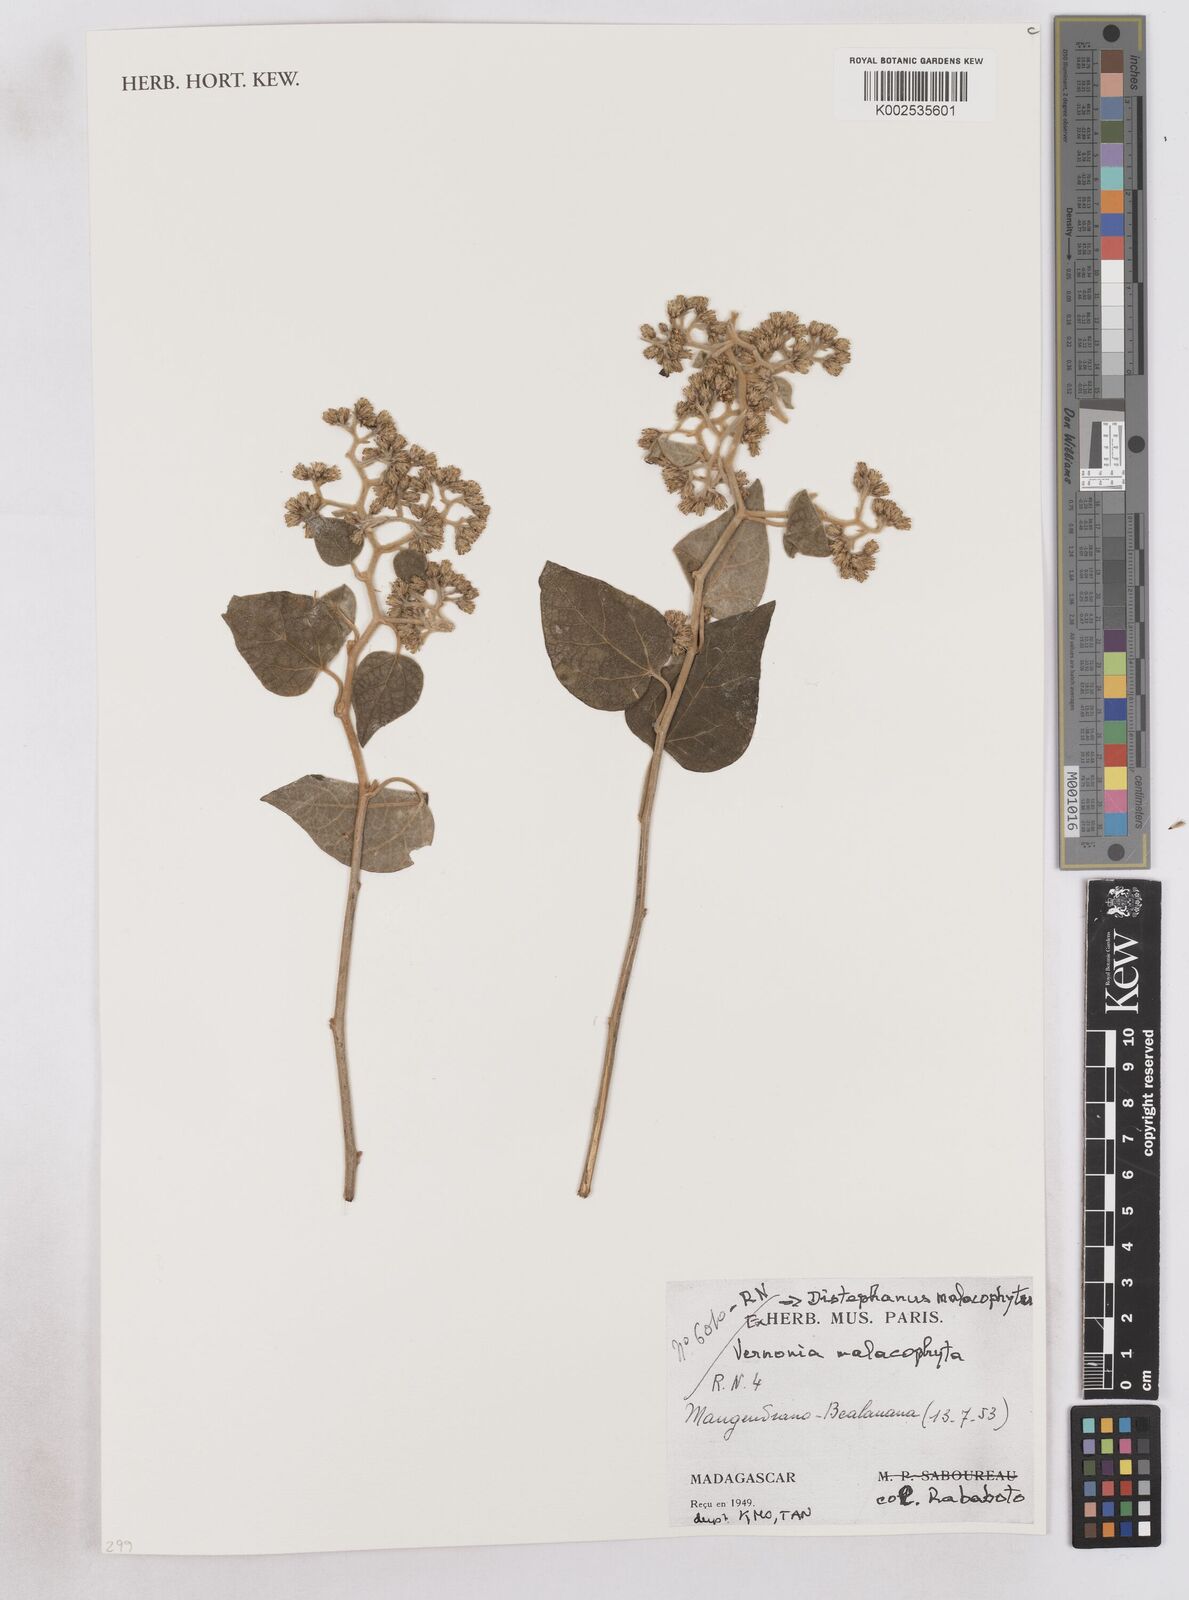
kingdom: Plantae
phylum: Tracheophyta
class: Magnoliopsida
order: Asterales
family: Asteraceae
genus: Distephanus
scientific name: Distephanus malacophytus
